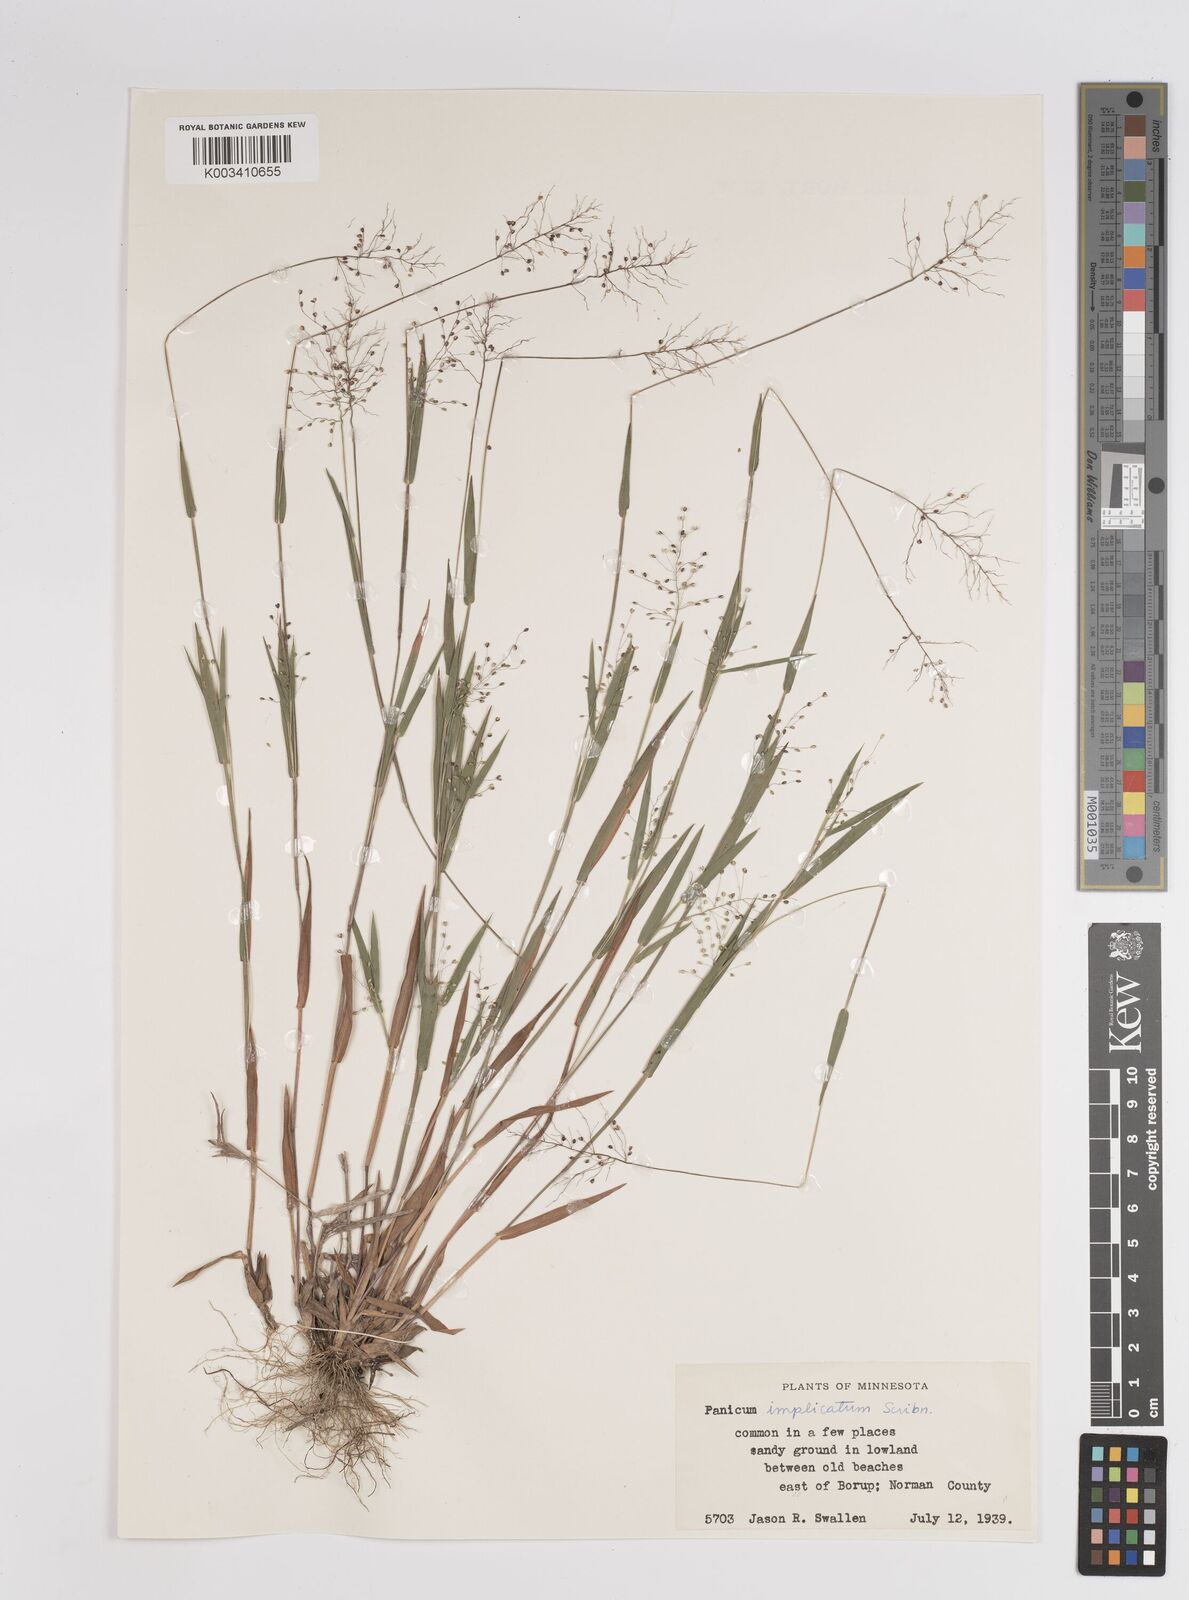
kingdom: Plantae
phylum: Tracheophyta
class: Liliopsida
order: Poales
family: Poaceae
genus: Dichanthelium
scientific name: Dichanthelium implicatum
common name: Slender-stemmed panicgrass
